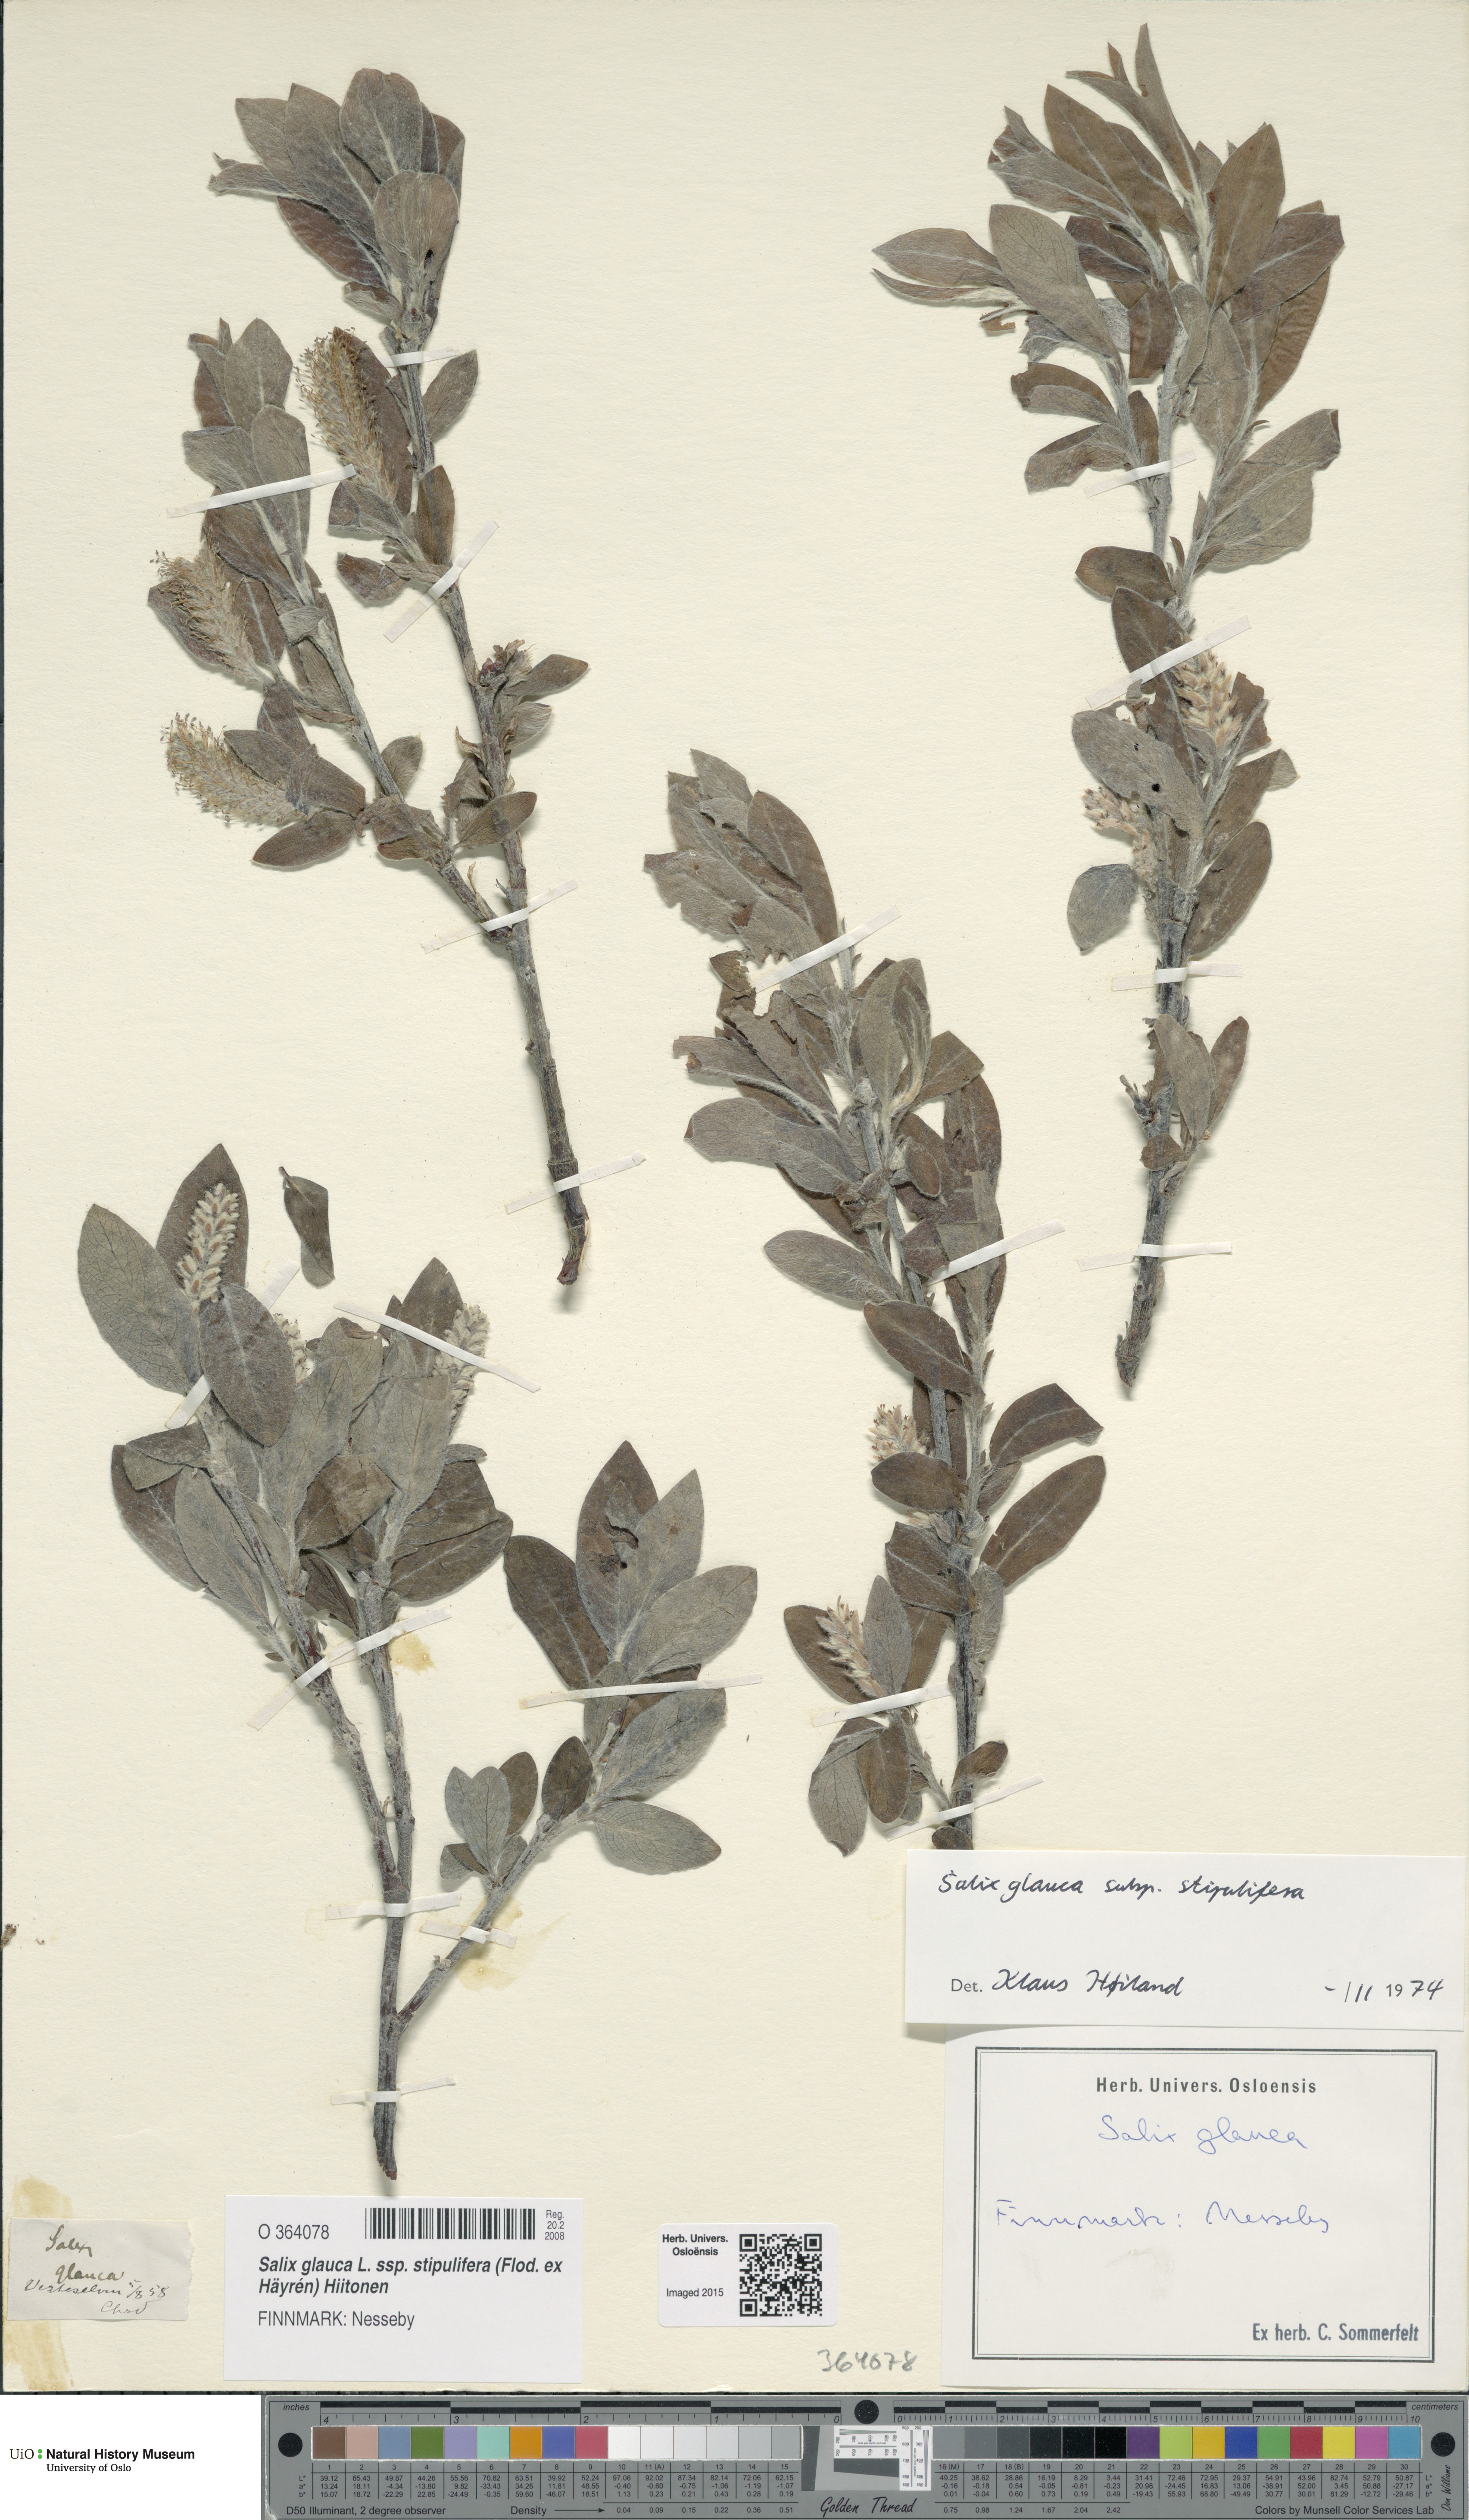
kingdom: Plantae
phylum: Tracheophyta
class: Magnoliopsida
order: Malpighiales
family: Salicaceae
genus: Salix
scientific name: Salix glauca
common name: Glaucous willow
